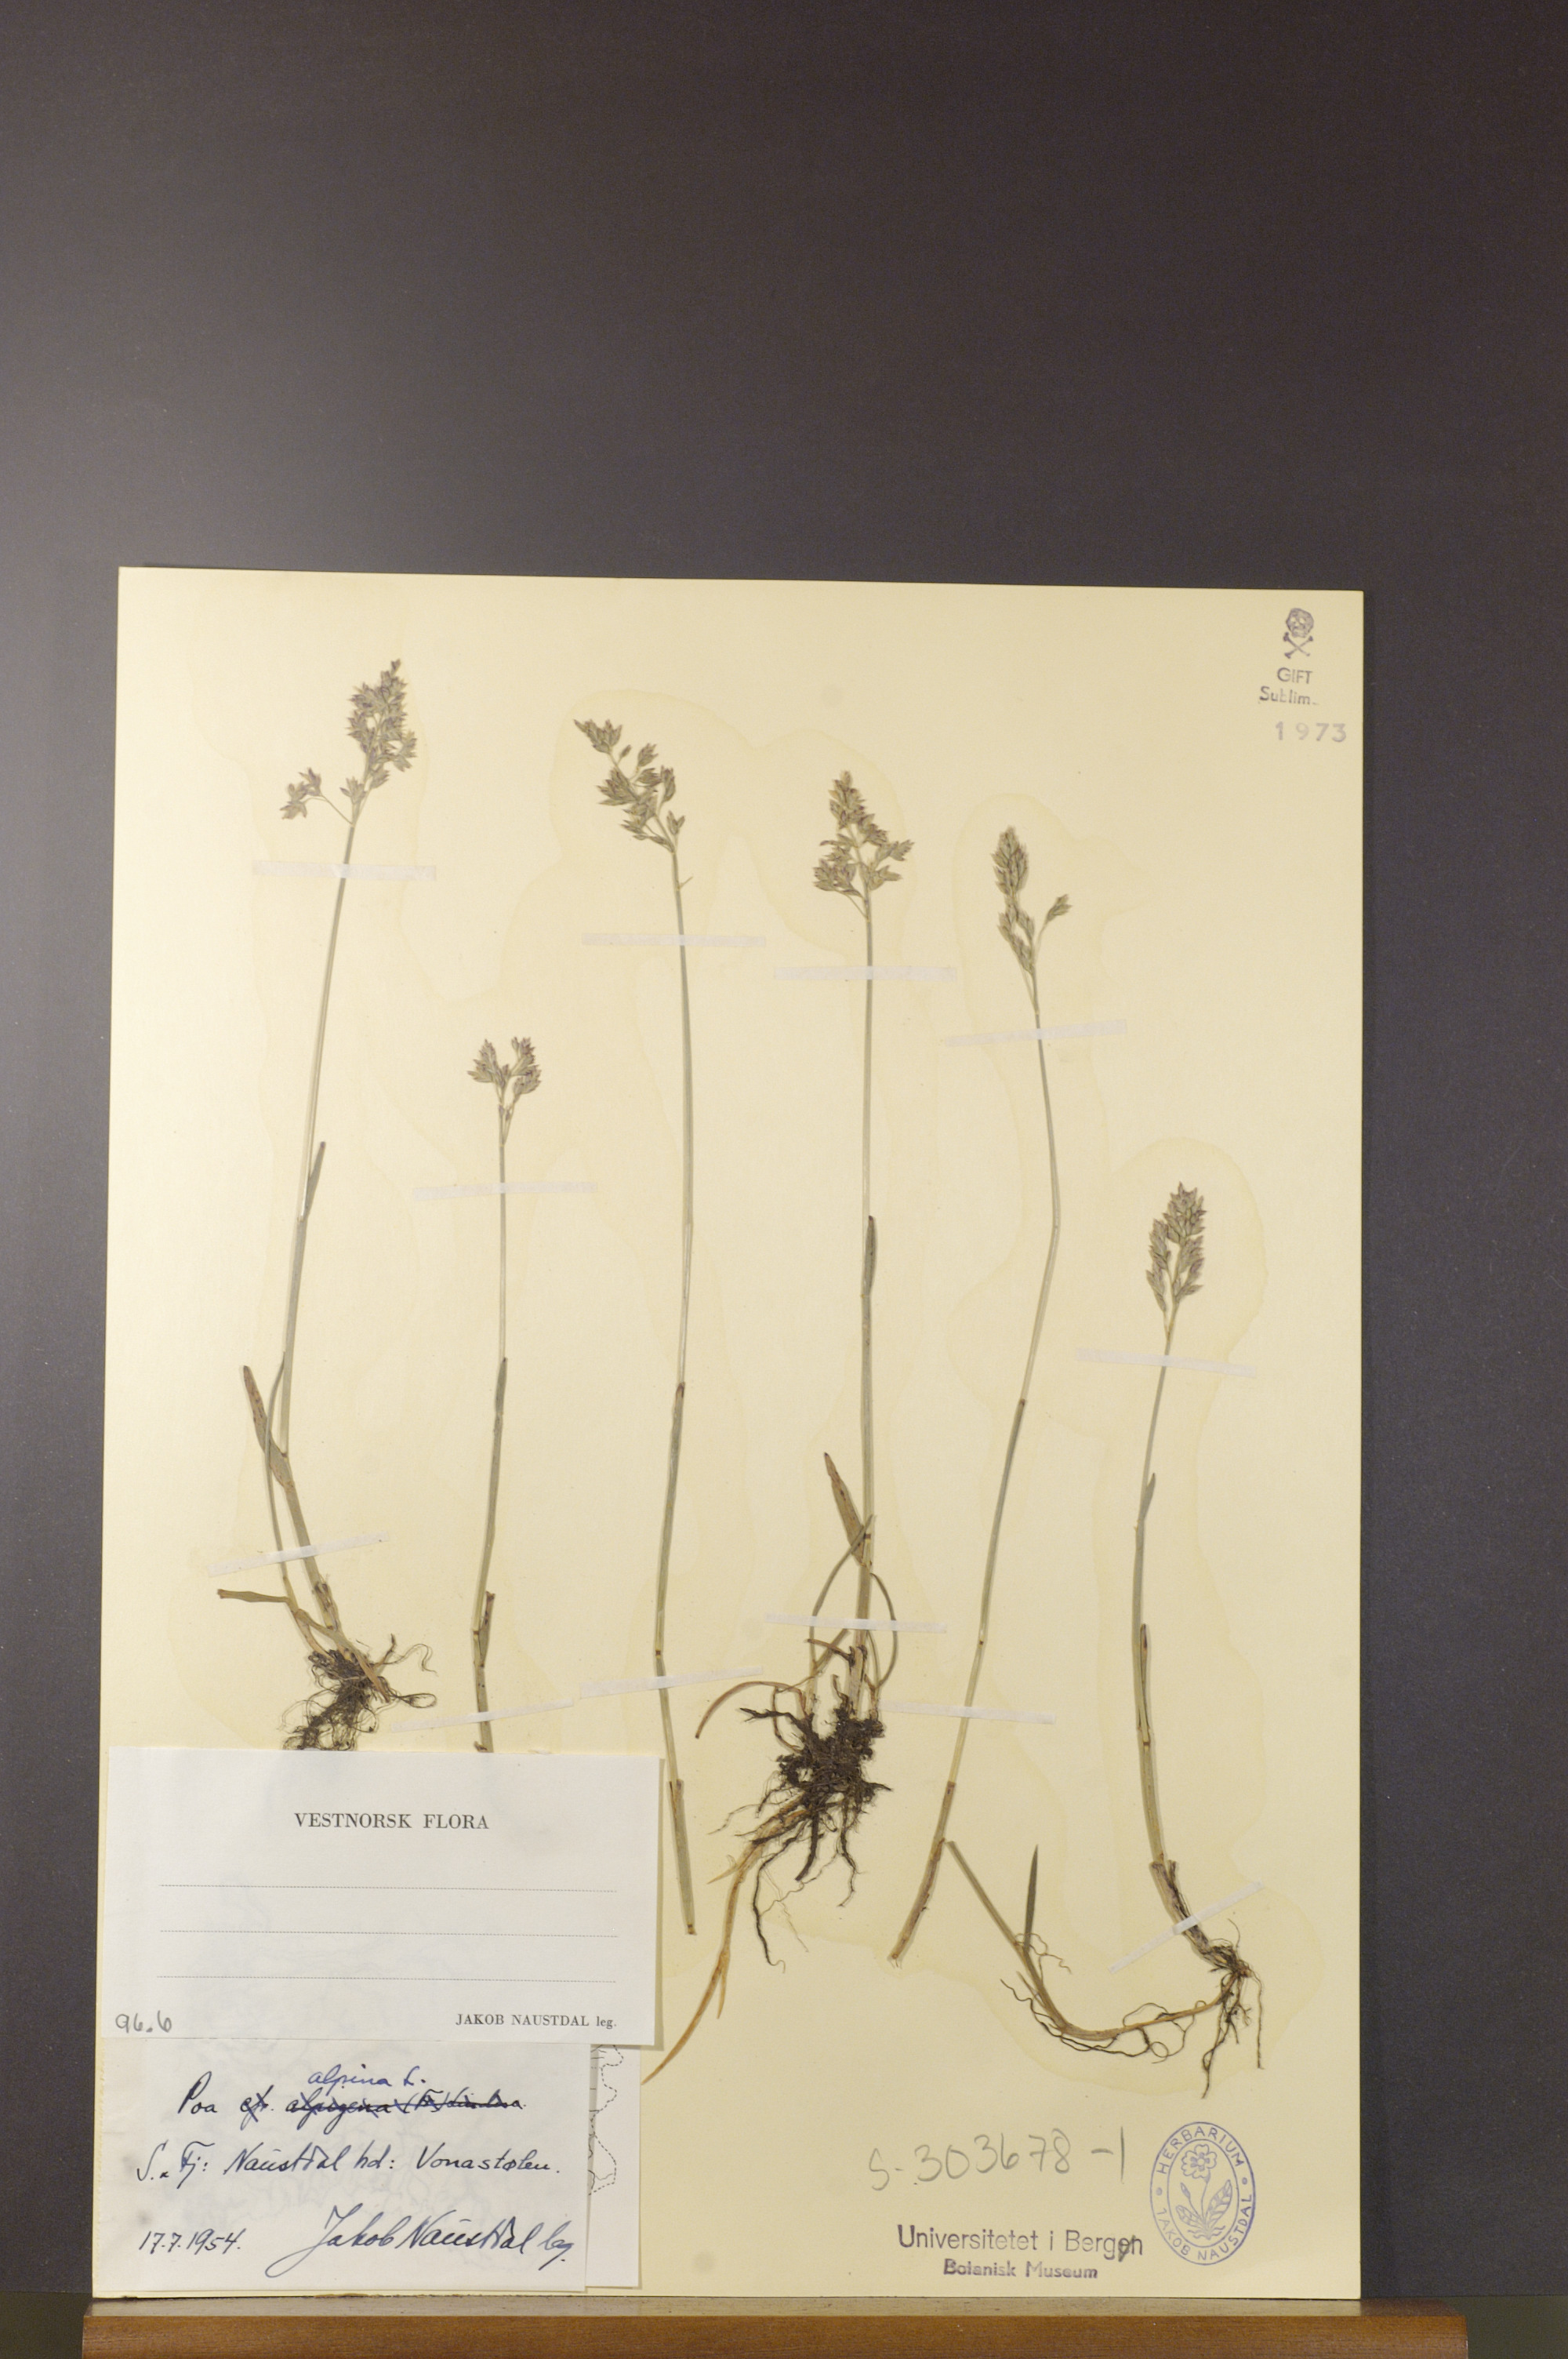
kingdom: Plantae
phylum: Tracheophyta
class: Liliopsida
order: Poales
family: Poaceae
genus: Poa
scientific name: Poa alpina
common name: Alpine bluegrass
